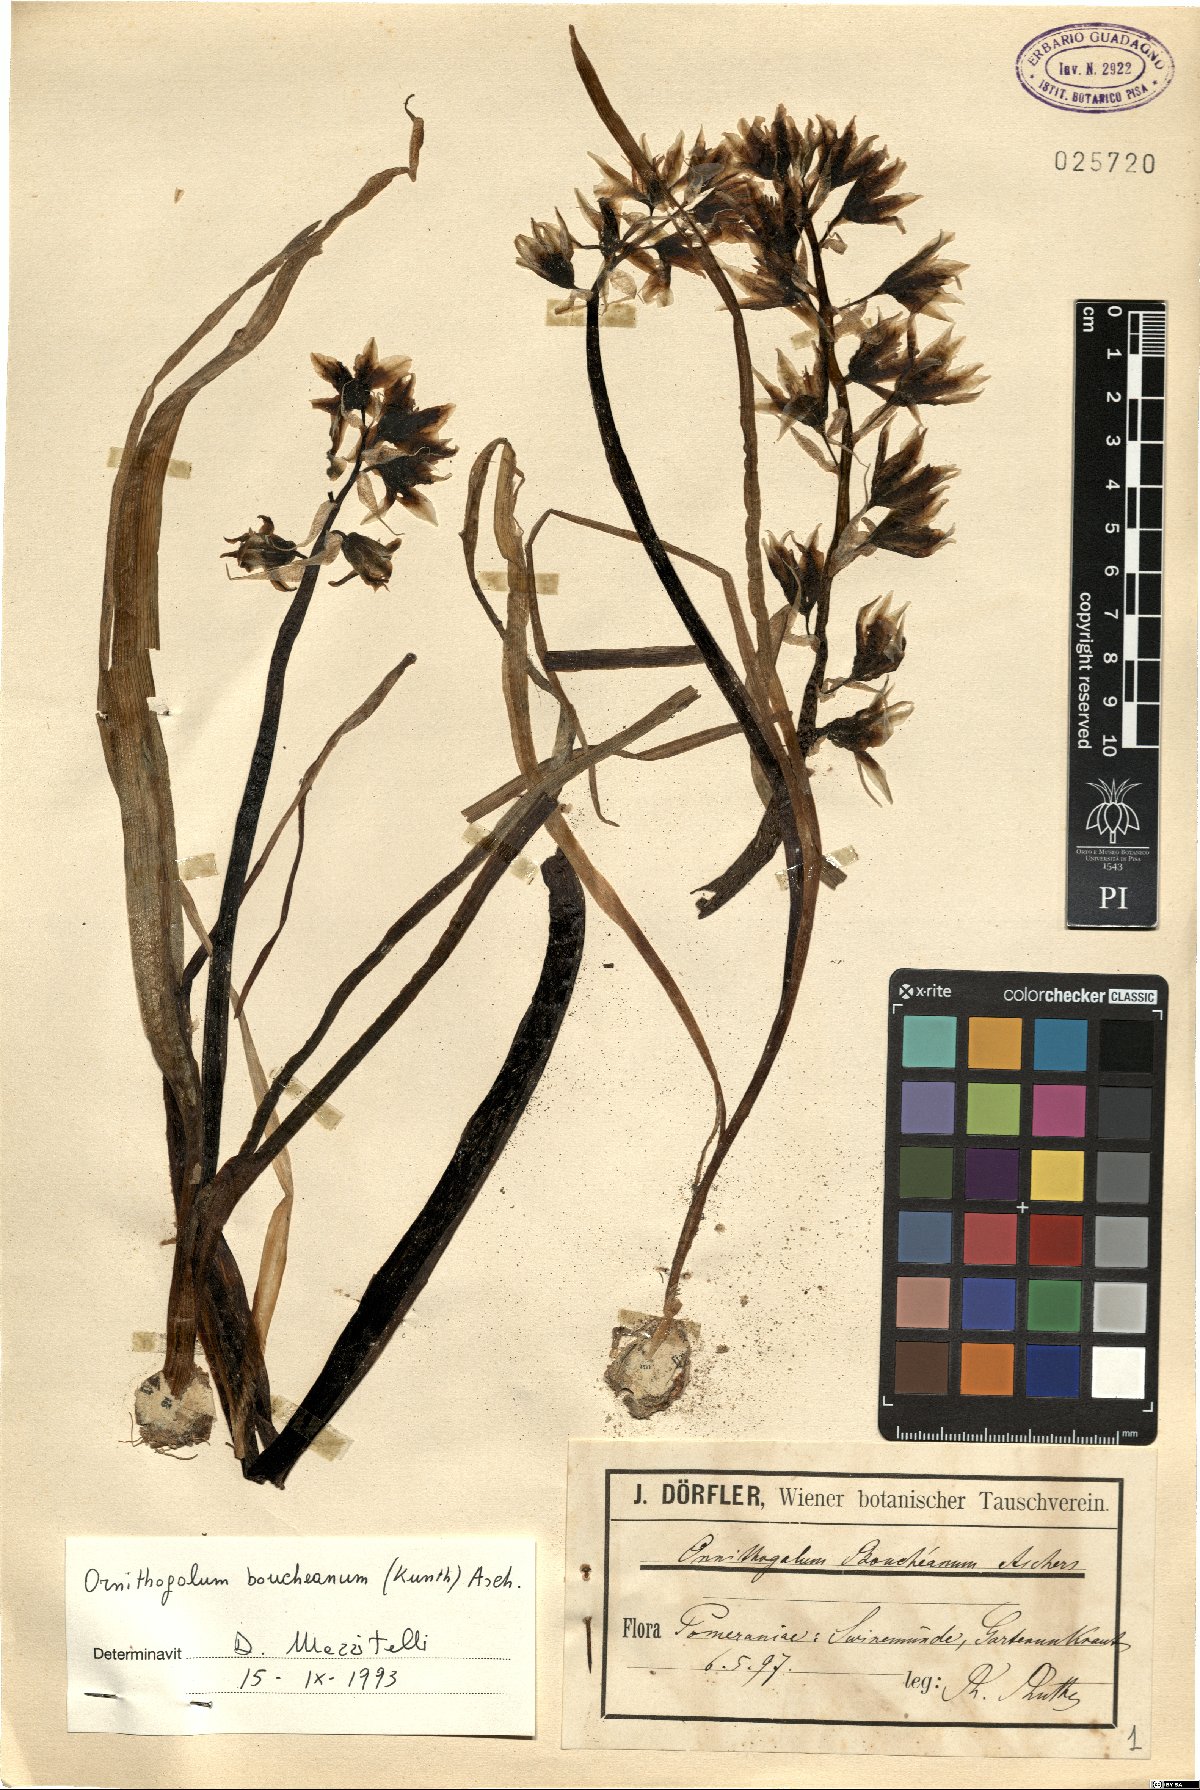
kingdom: Plantae
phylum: Tracheophyta
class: Liliopsida
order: Asparagales
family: Asparagaceae
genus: Ornithogalum
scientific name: Ornithogalum boucheanum
